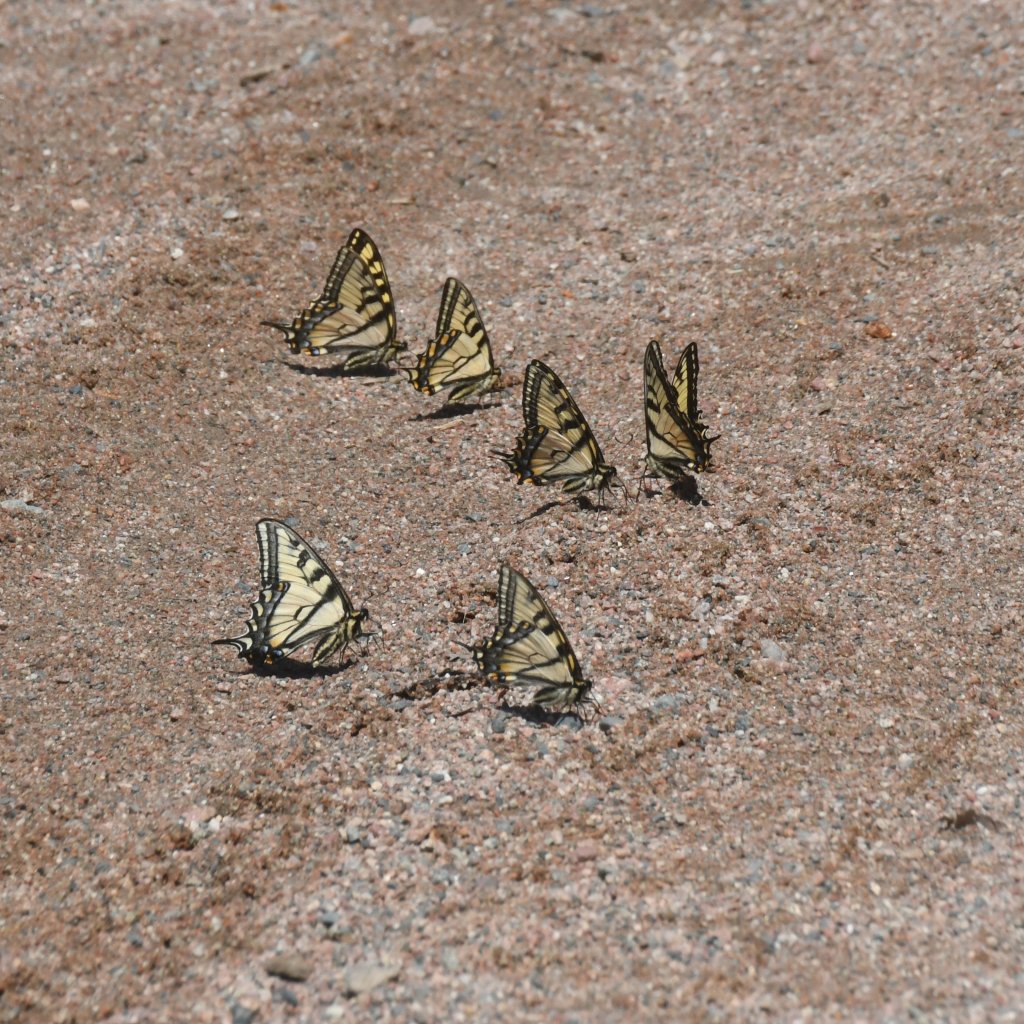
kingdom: Animalia
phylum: Arthropoda
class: Insecta
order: Lepidoptera
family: Papilionidae
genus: Pterourus
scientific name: Pterourus canadensis
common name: Canadian Tiger Swallowtail
